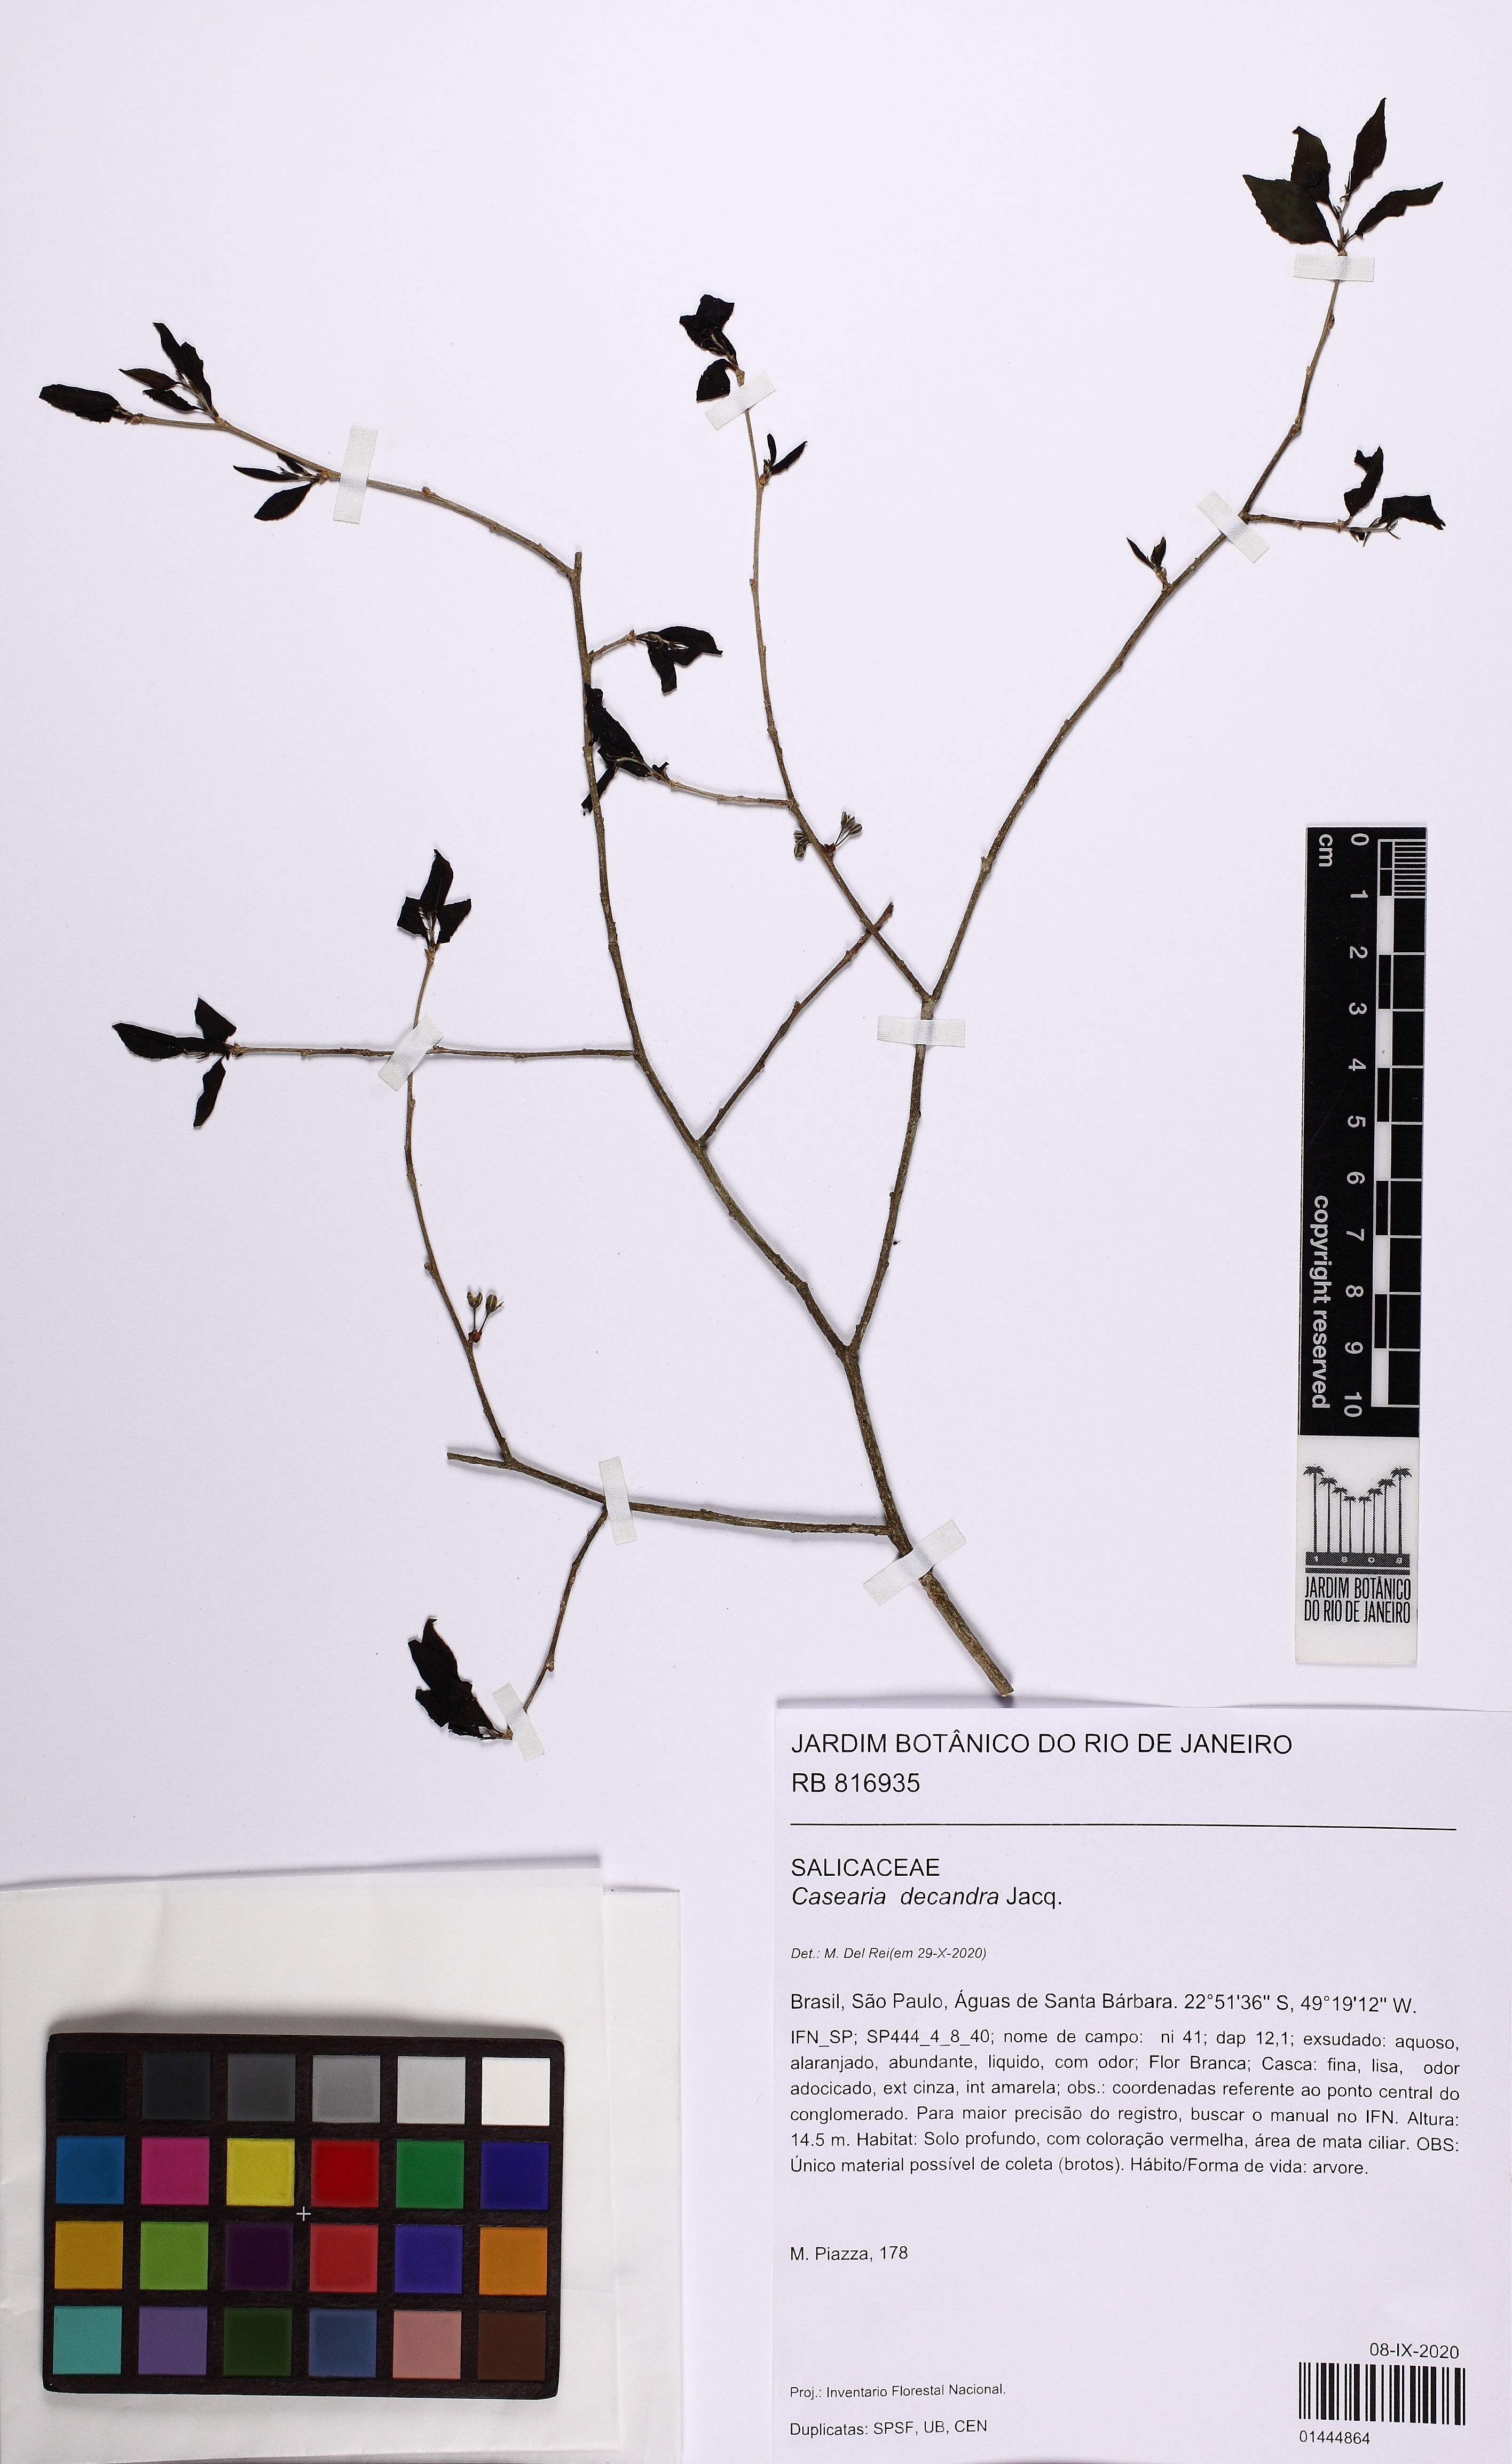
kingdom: Plantae
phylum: Tracheophyta
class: Magnoliopsida
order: Malpighiales
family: Salicaceae
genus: Casearia
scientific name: Casearia decandra
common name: Crack open
